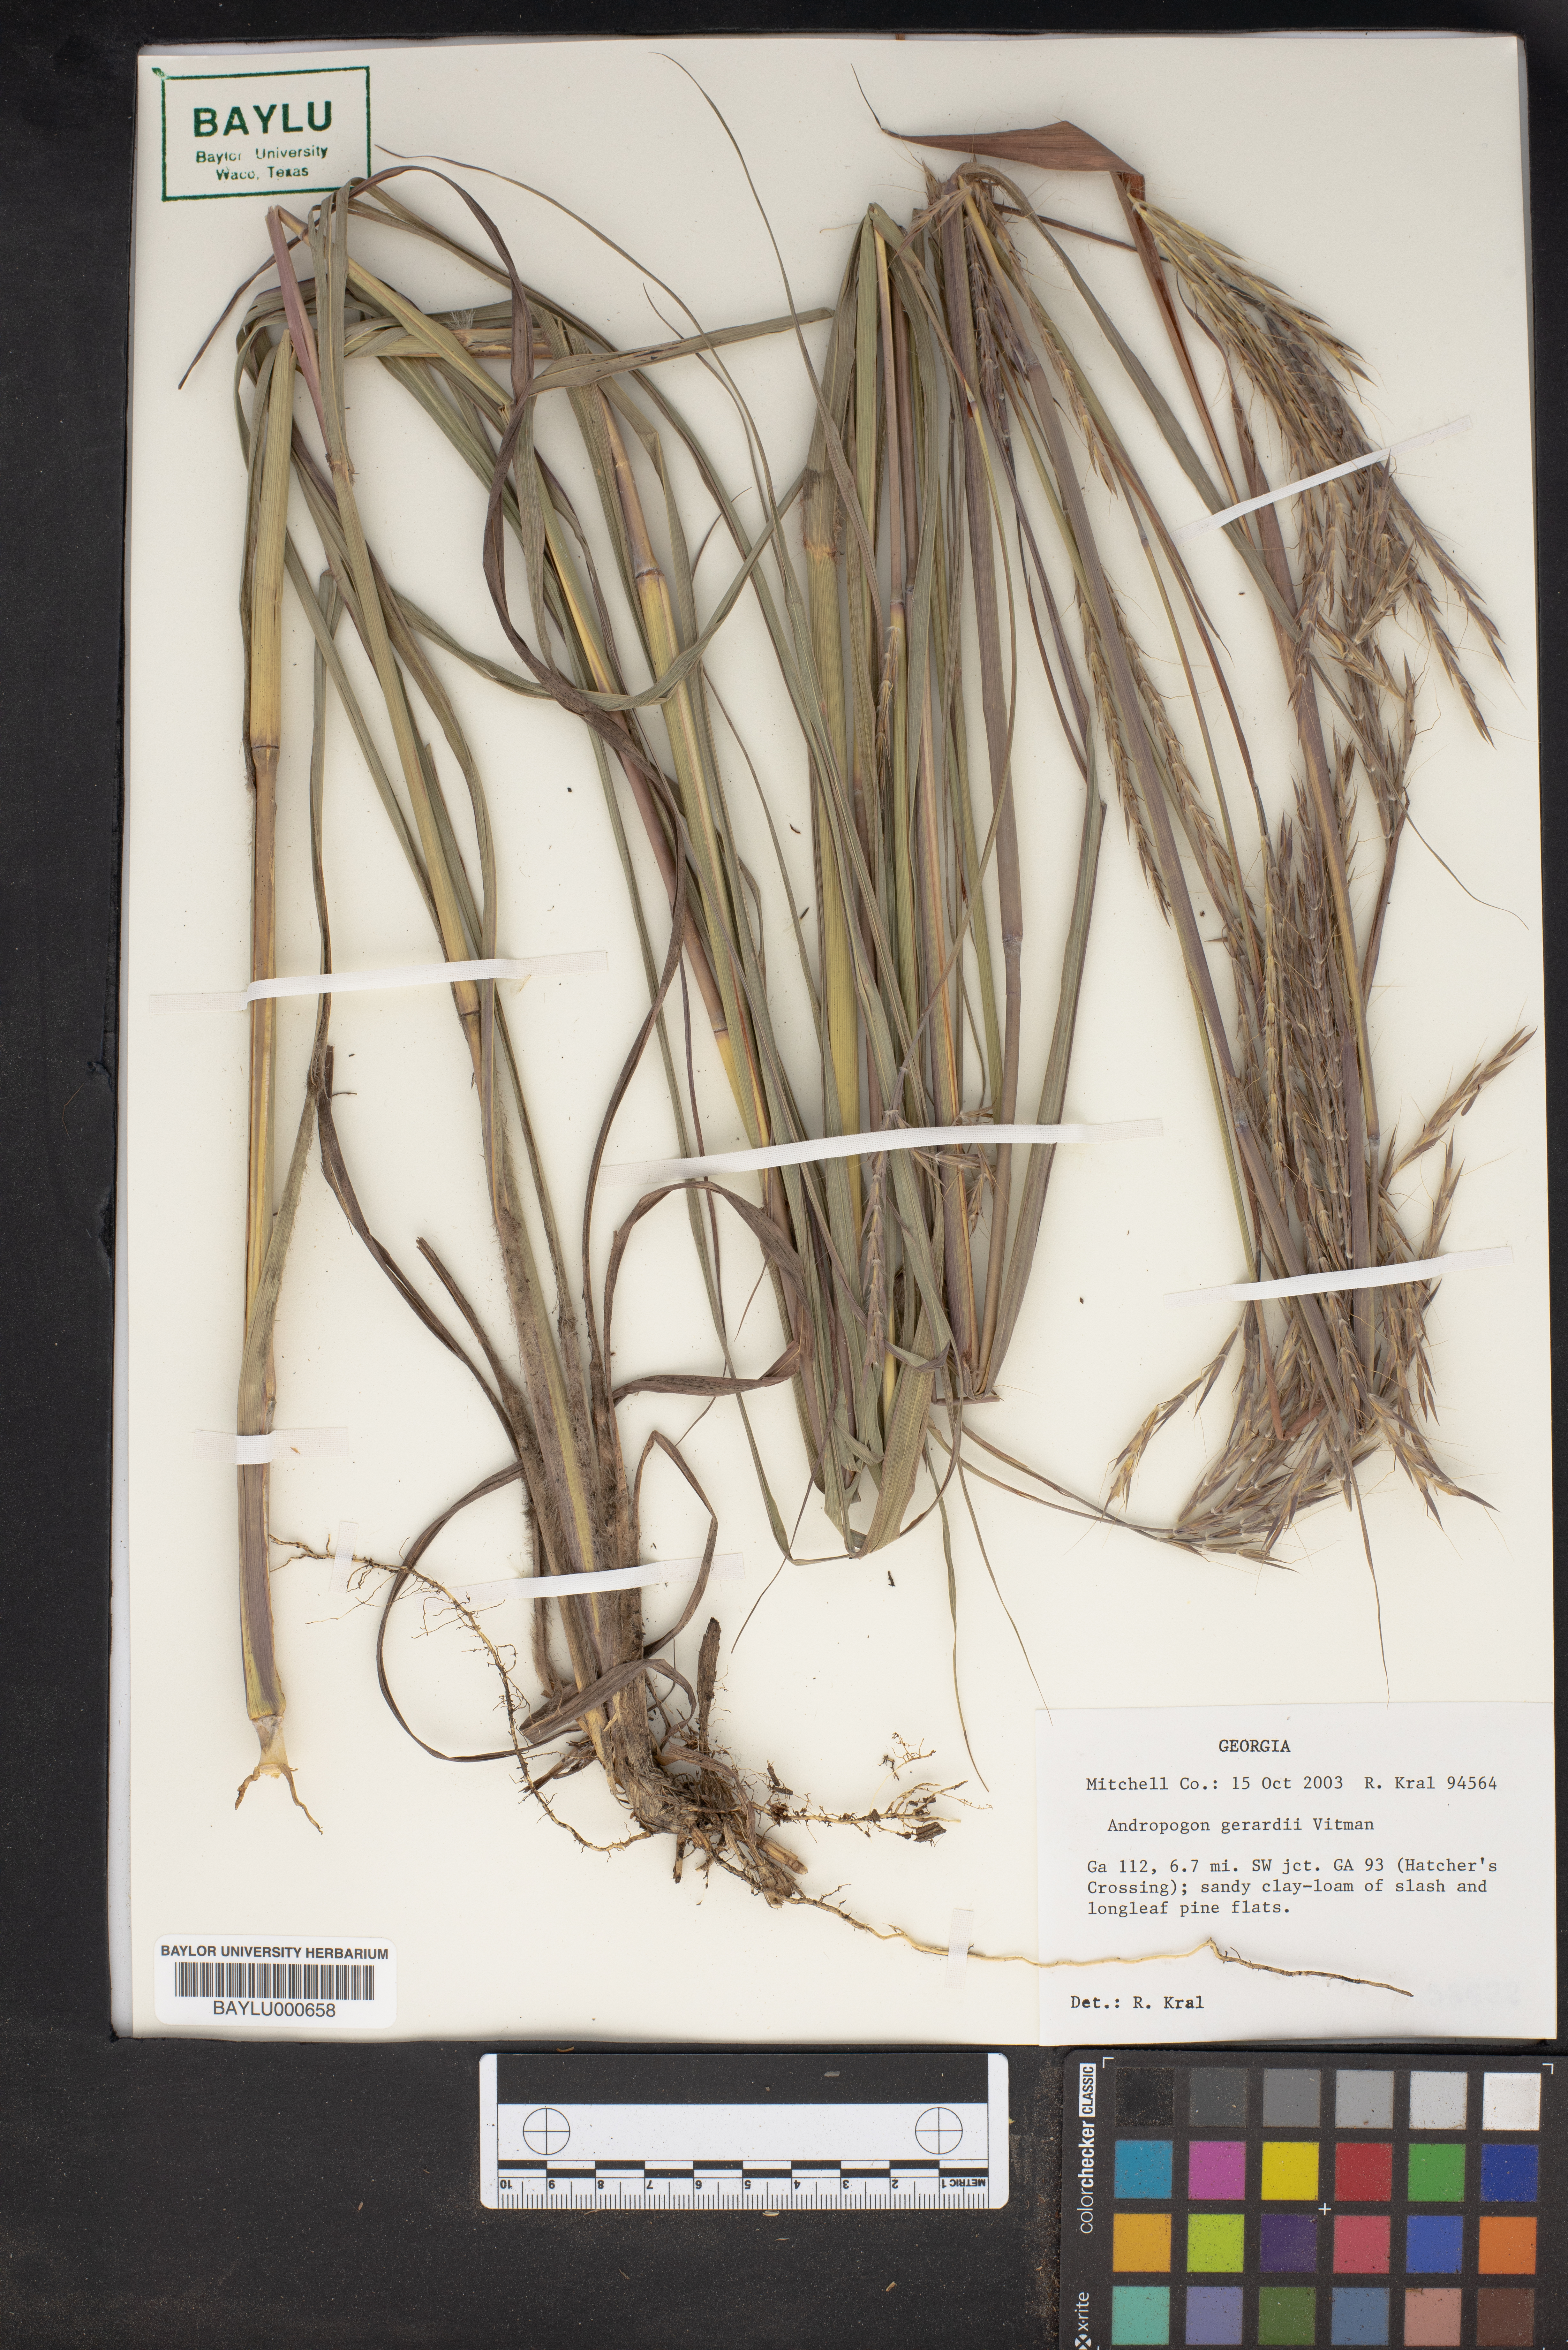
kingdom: Plantae
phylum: Tracheophyta
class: Liliopsida
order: Poales
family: Poaceae
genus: Andropogon
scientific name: Andropogon gerardi
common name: Big bluestem
